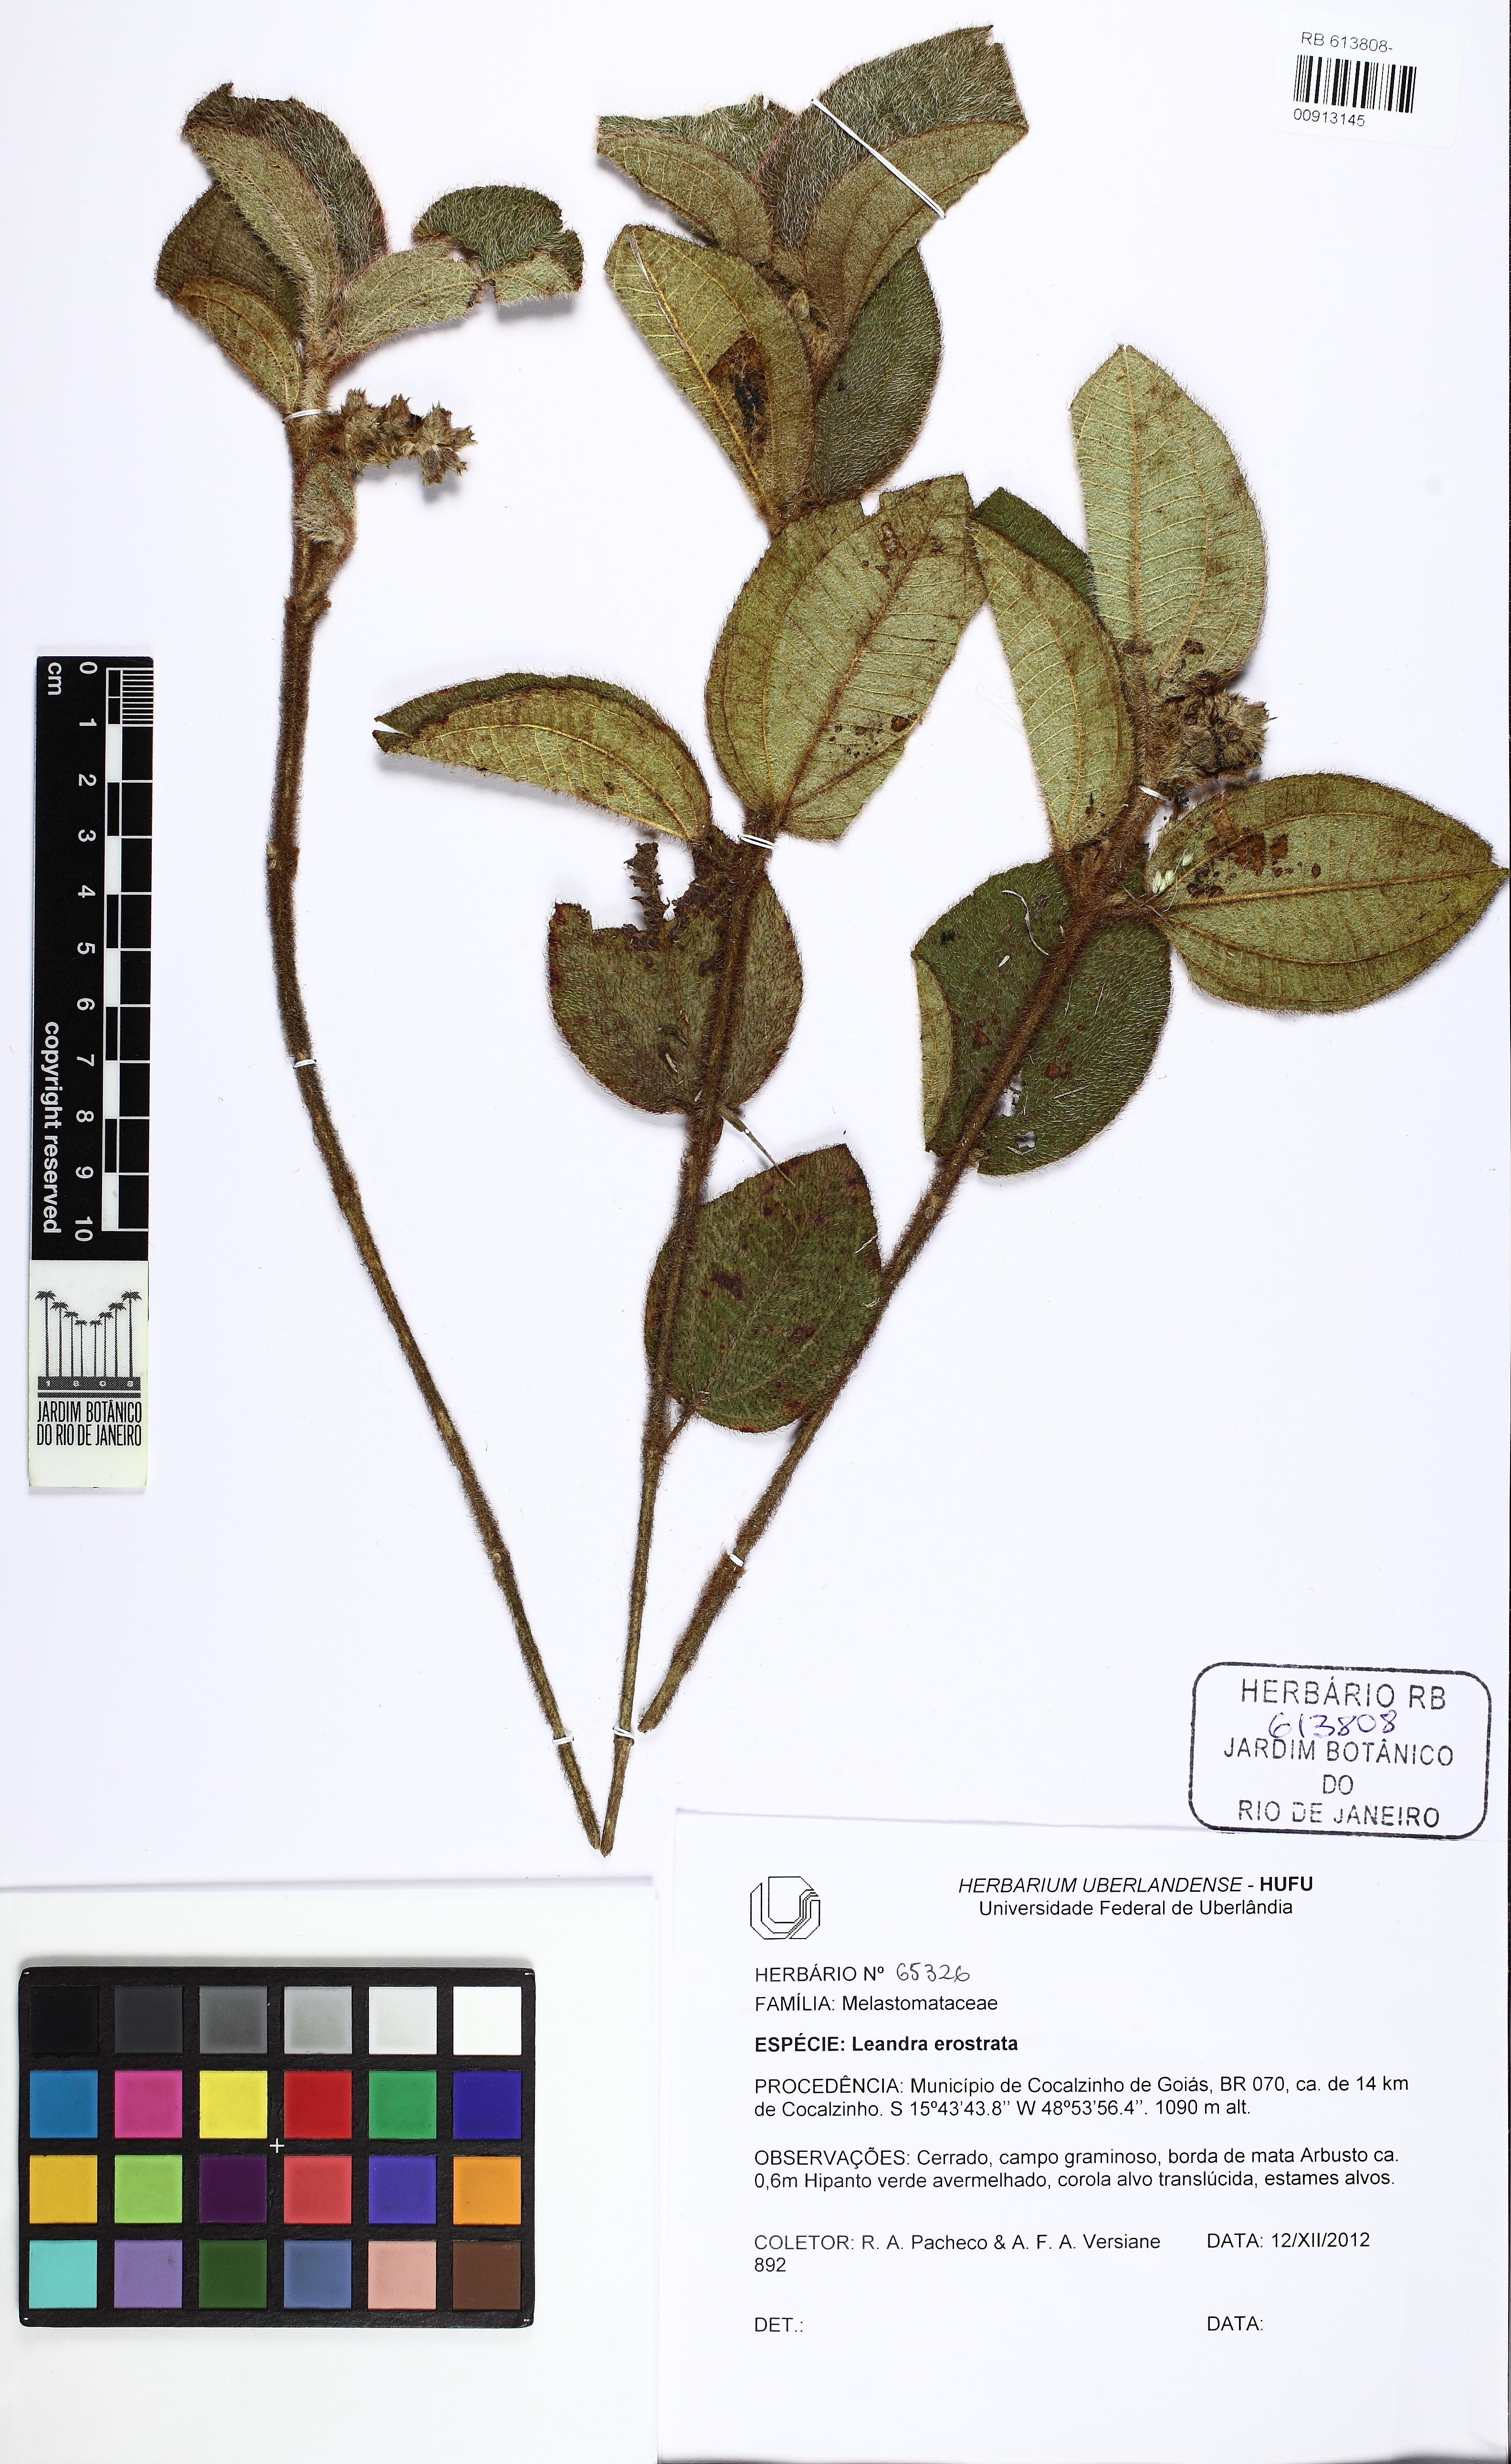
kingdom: Plantae
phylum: Tracheophyta
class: Magnoliopsida
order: Myrtales
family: Melastomataceae
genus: Miconia
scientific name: Miconia erostrata
